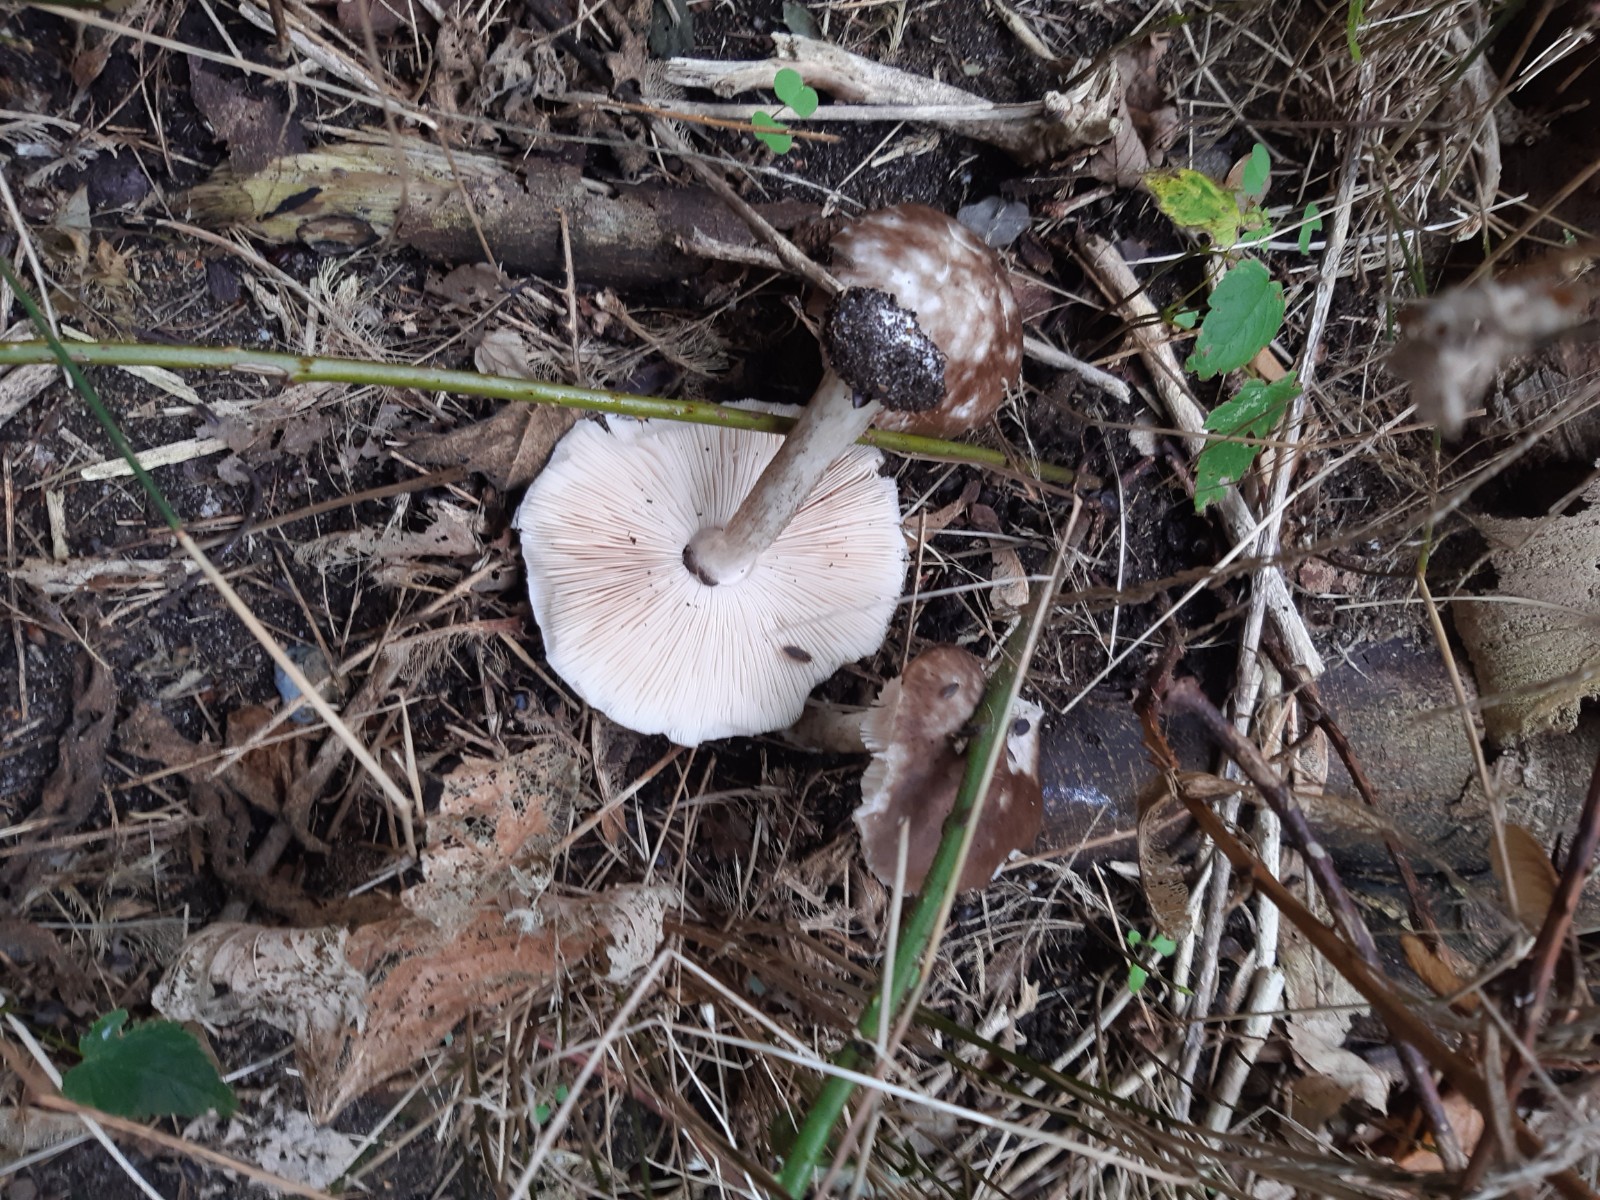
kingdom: Fungi
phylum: Basidiomycota
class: Agaricomycetes
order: Agaricales
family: Pluteaceae
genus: Pluteus
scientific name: Pluteus cervinus
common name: sodfarvet skærmhat
